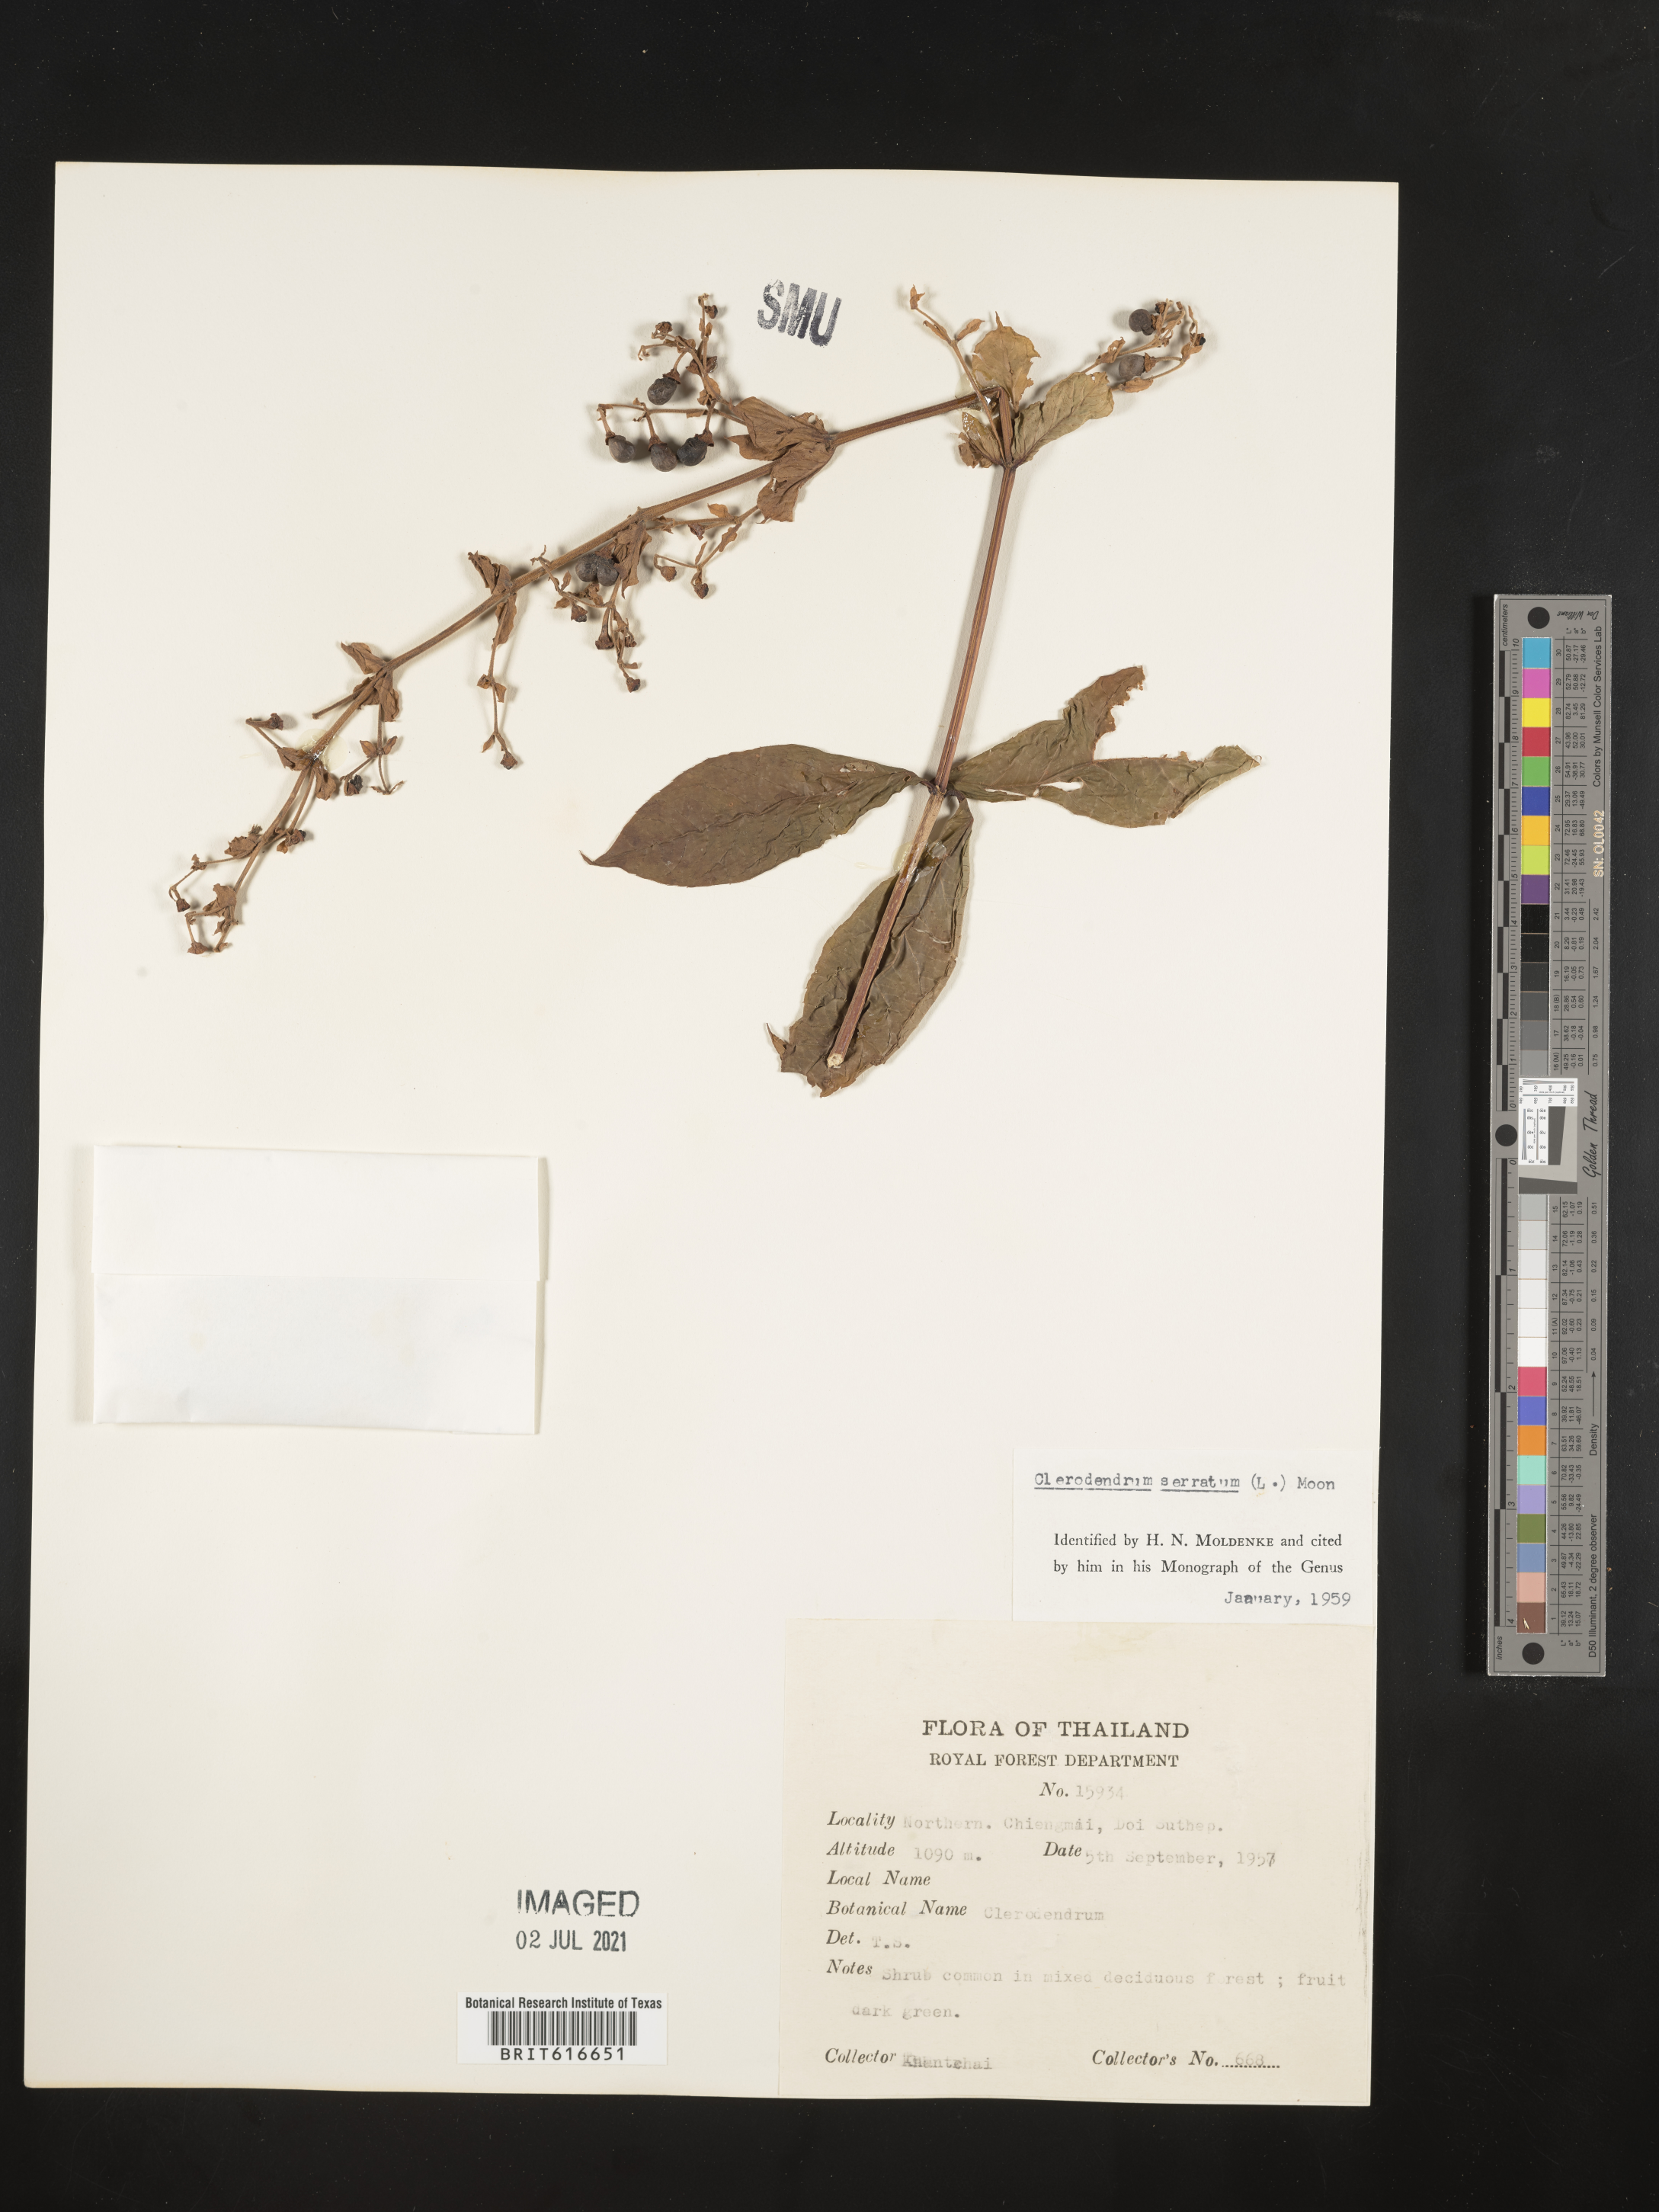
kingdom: Plantae
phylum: Tracheophyta
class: Magnoliopsida
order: Lamiales
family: Lamiaceae
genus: Rotheca
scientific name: Rotheca serrata
